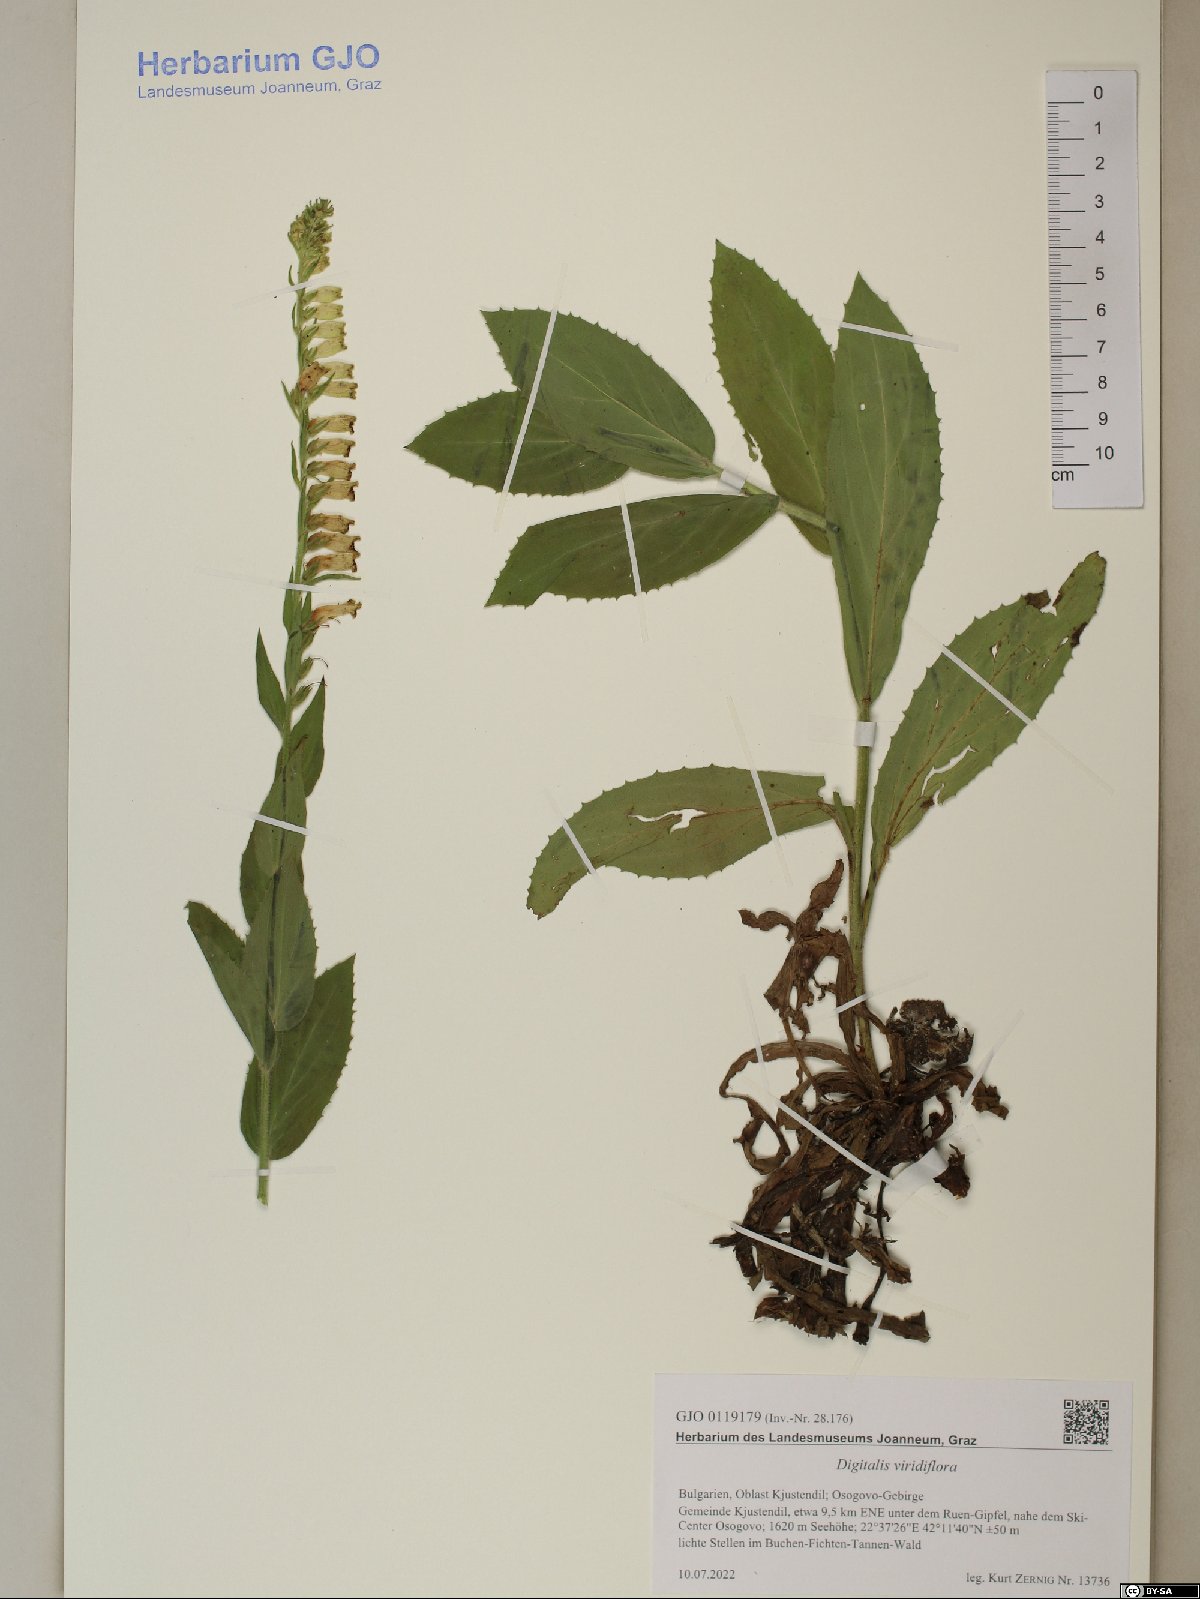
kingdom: Plantae
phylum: Tracheophyta
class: Magnoliopsida
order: Lamiales
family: Plantaginaceae
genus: Digitalis
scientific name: Digitalis viridiflora
